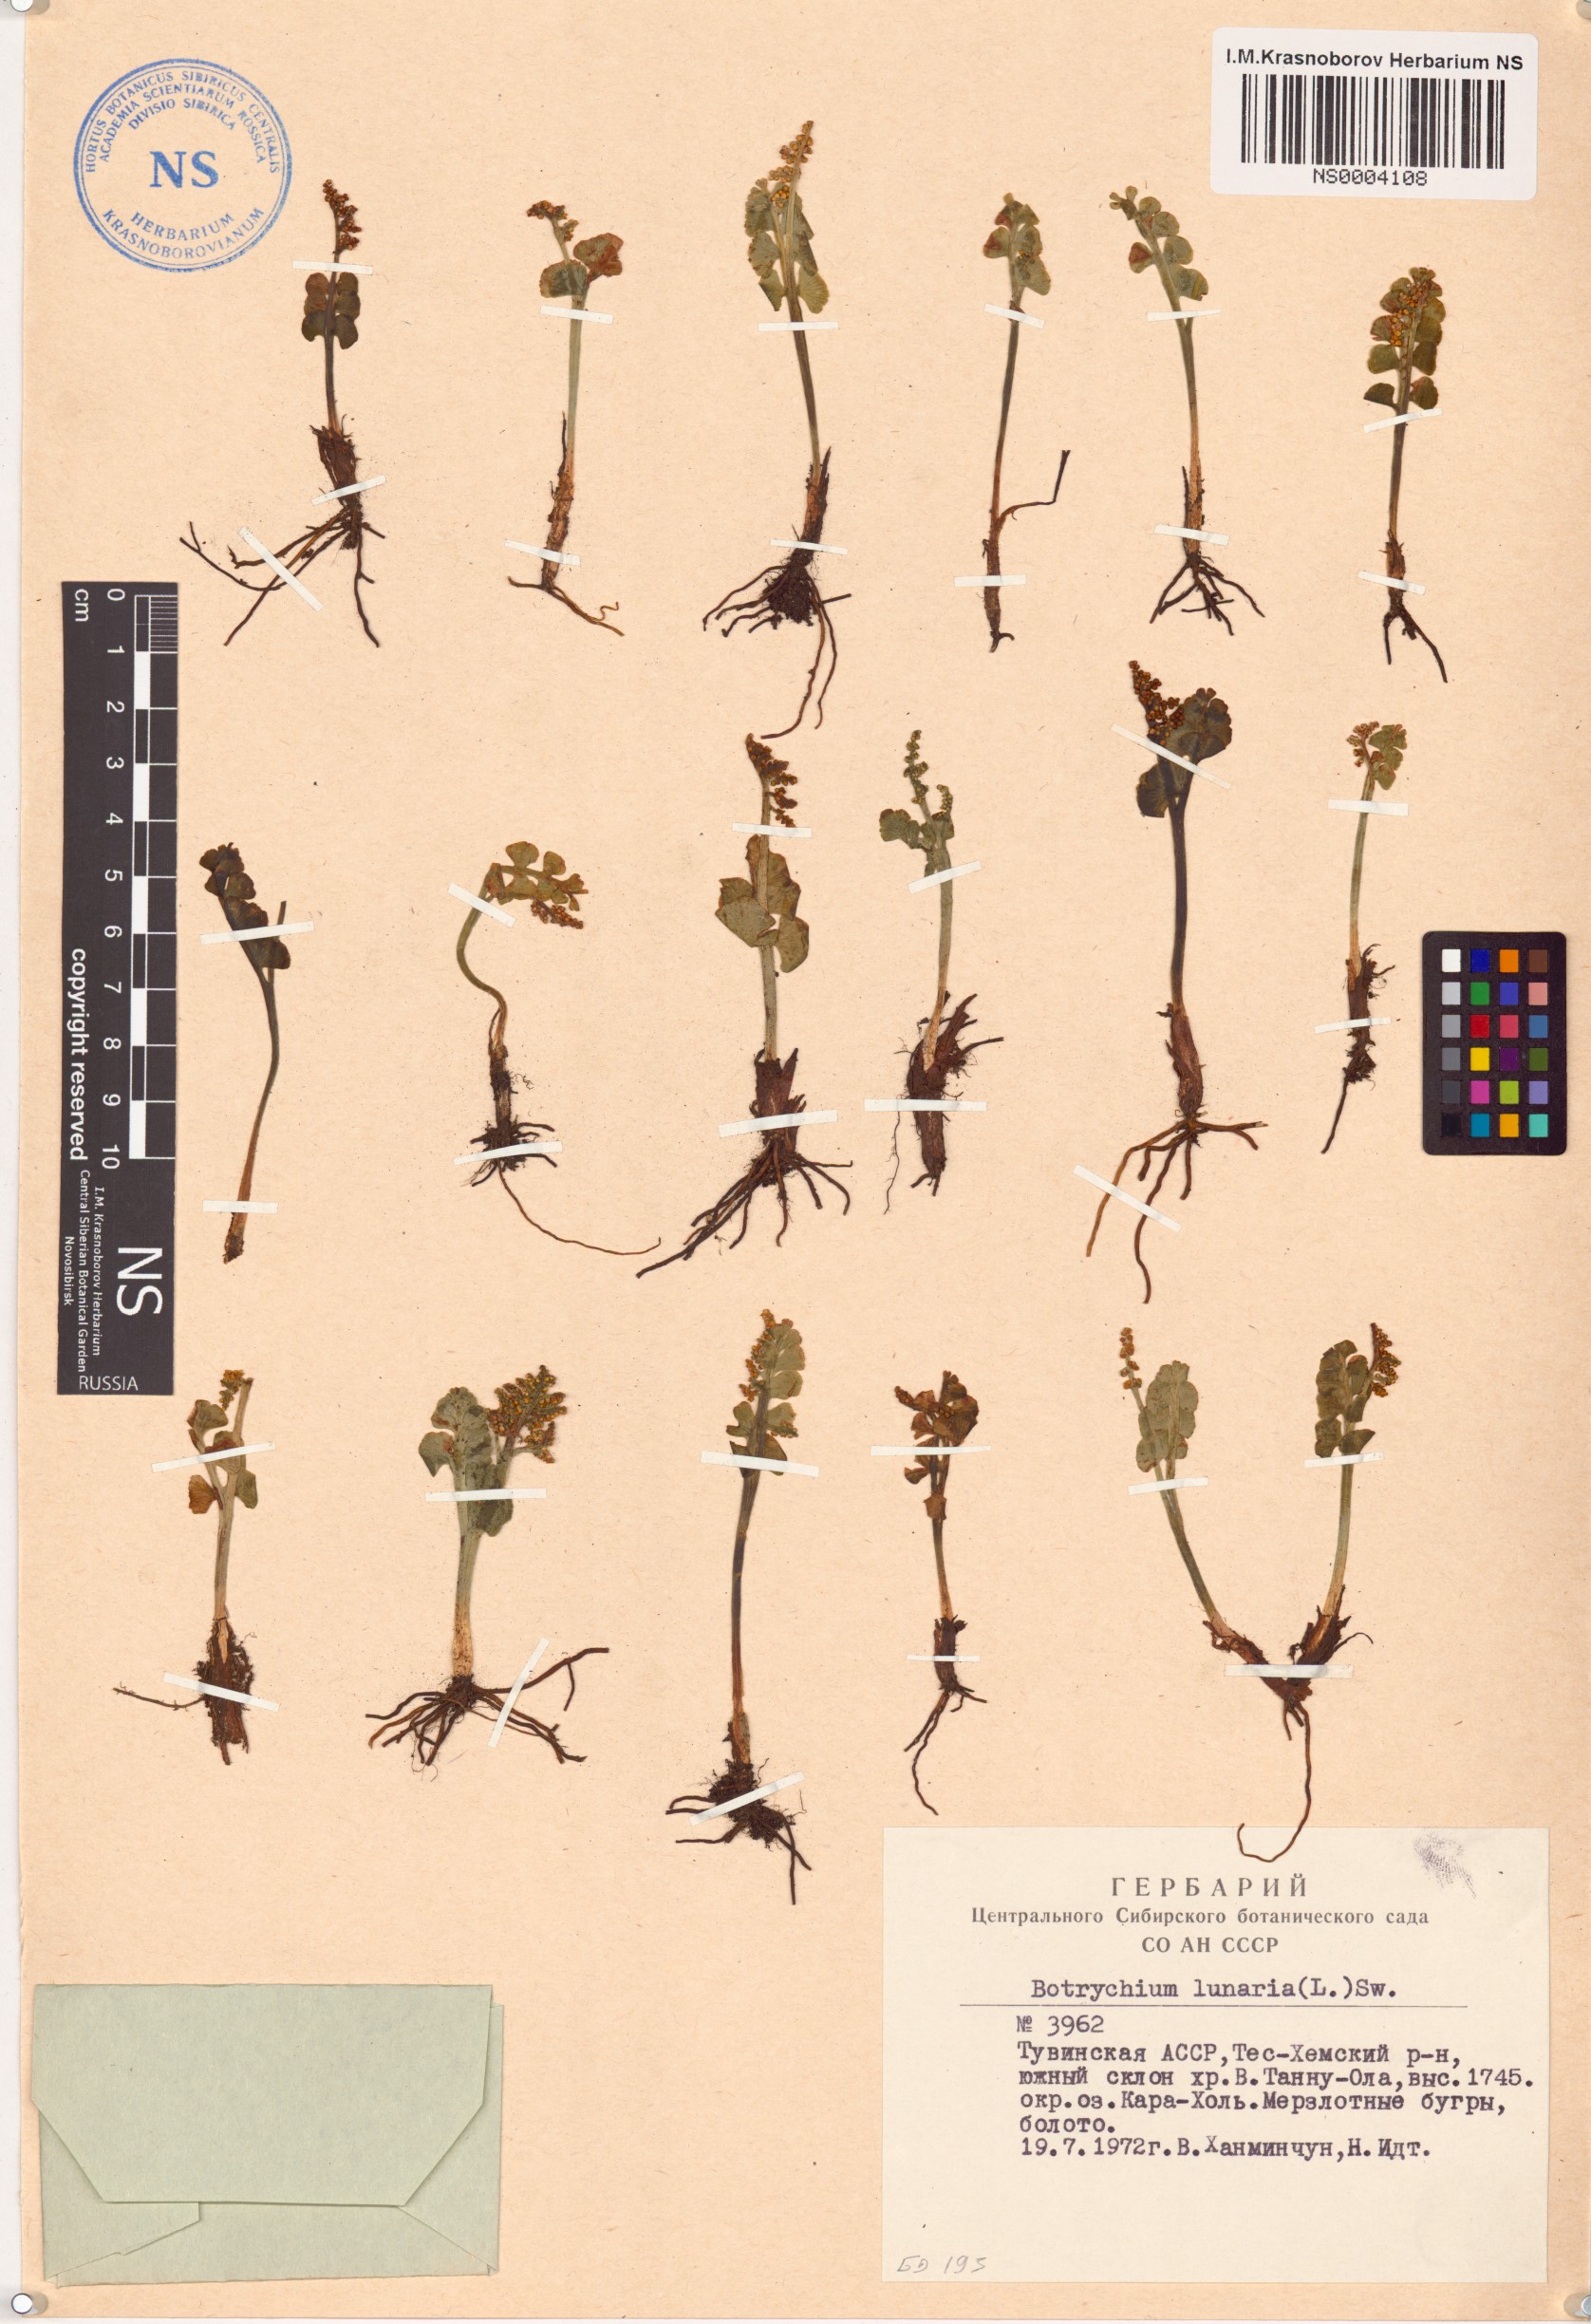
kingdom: Plantae
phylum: Tracheophyta
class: Polypodiopsida
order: Ophioglossales
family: Ophioglossaceae
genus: Botrychium
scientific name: Botrychium lunaria
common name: Moonwort
